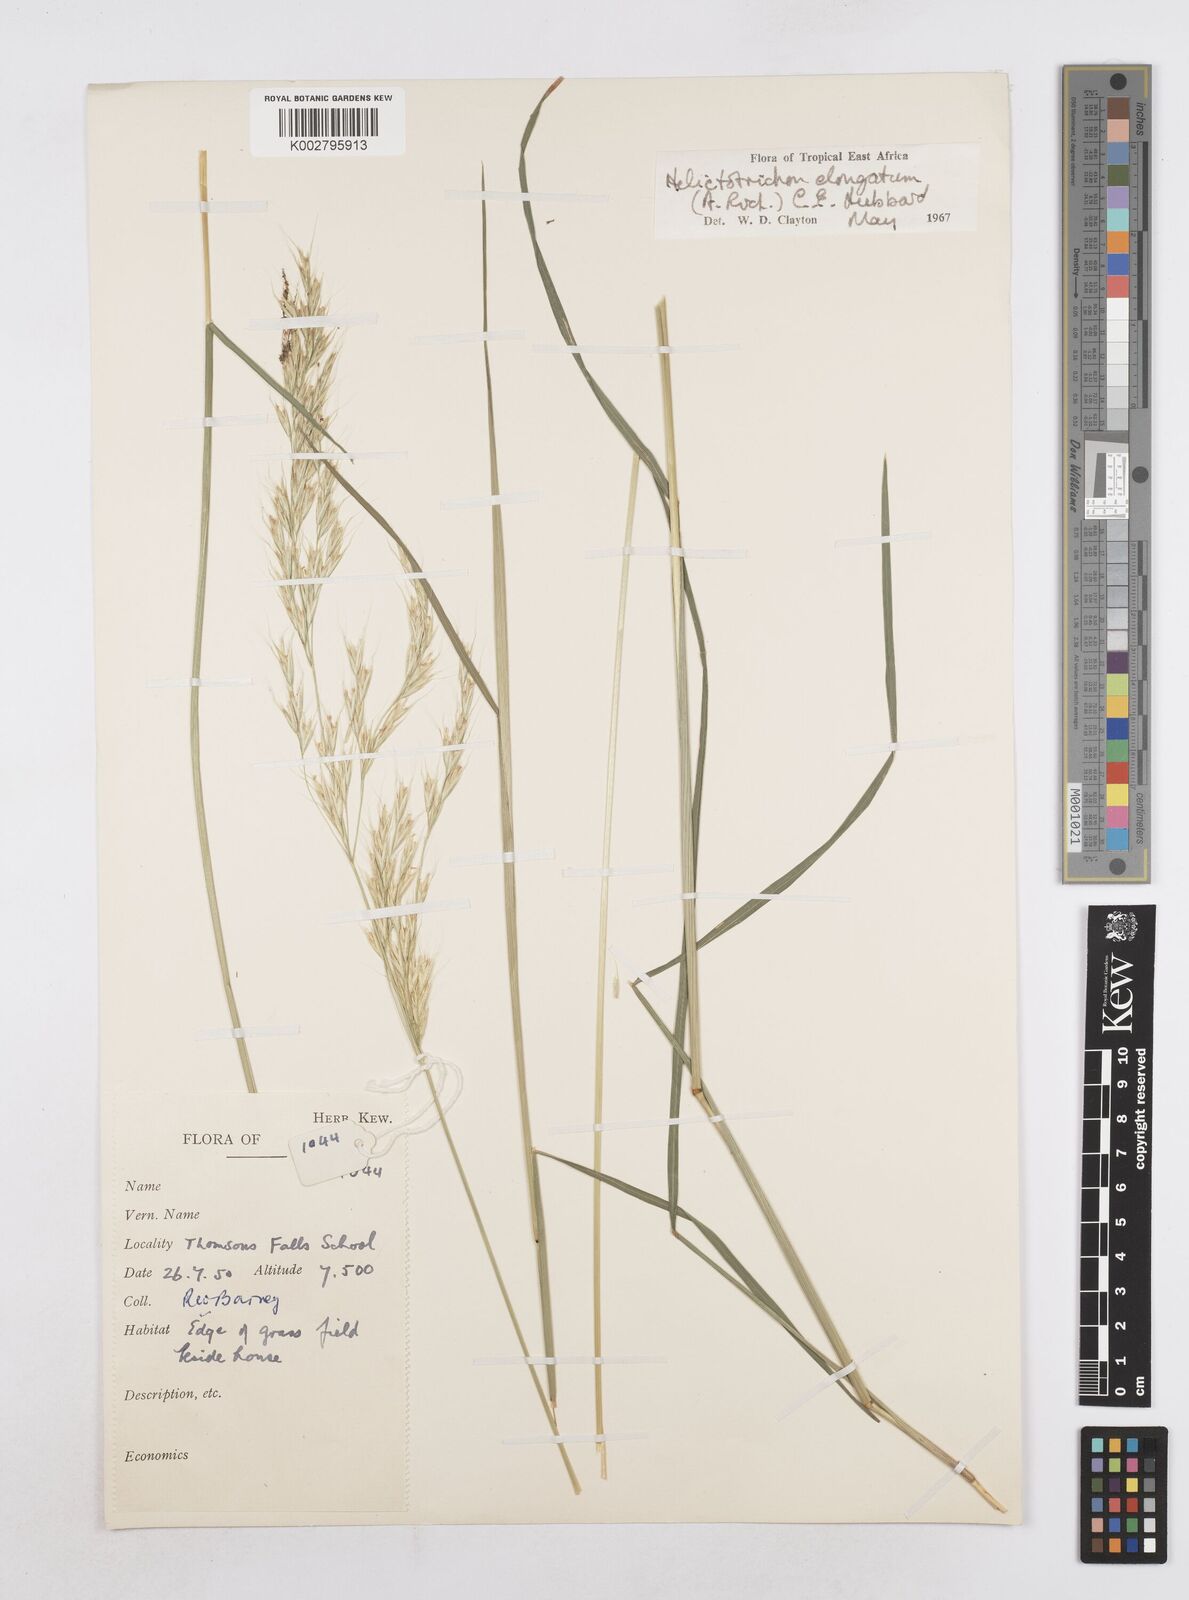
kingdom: Plantae
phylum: Tracheophyta
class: Liliopsida
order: Poales
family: Poaceae
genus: Trisetopsis
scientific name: Trisetopsis elongata
